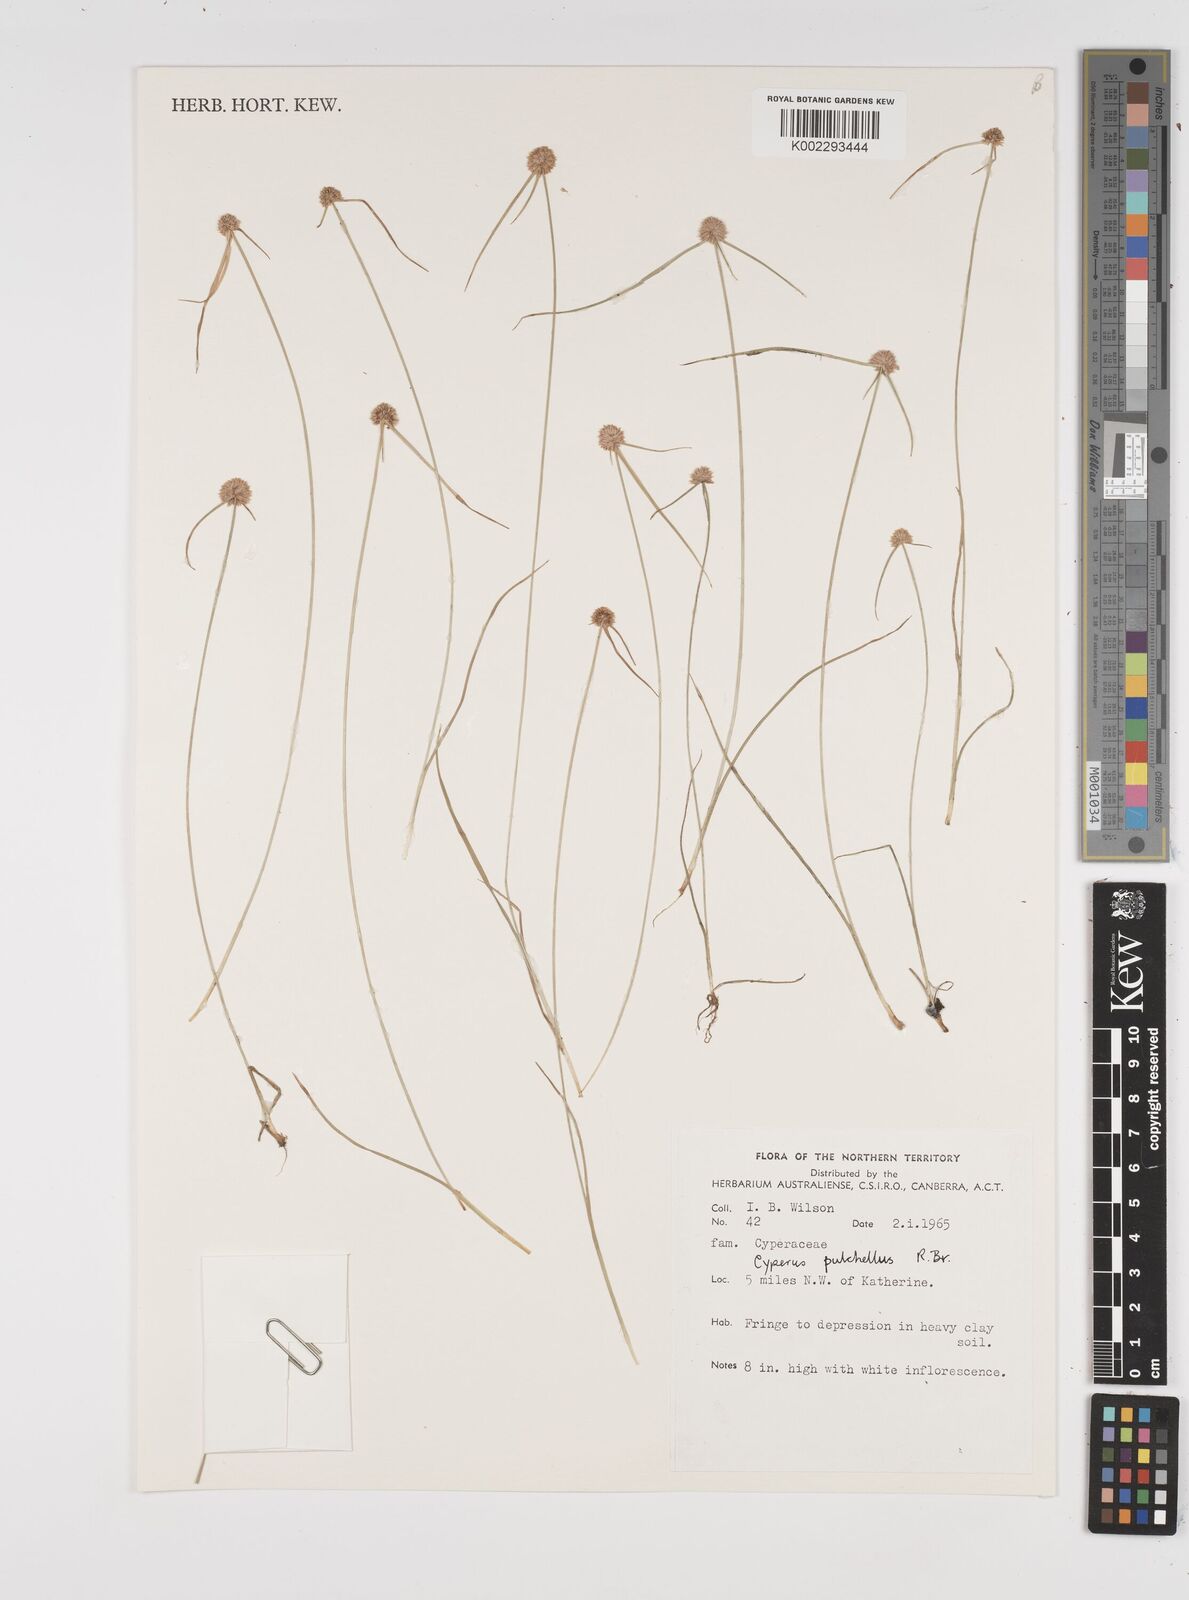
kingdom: Plantae
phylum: Tracheophyta
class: Liliopsida
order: Poales
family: Cyperaceae
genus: Cyperus
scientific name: Cyperus pulchellus
